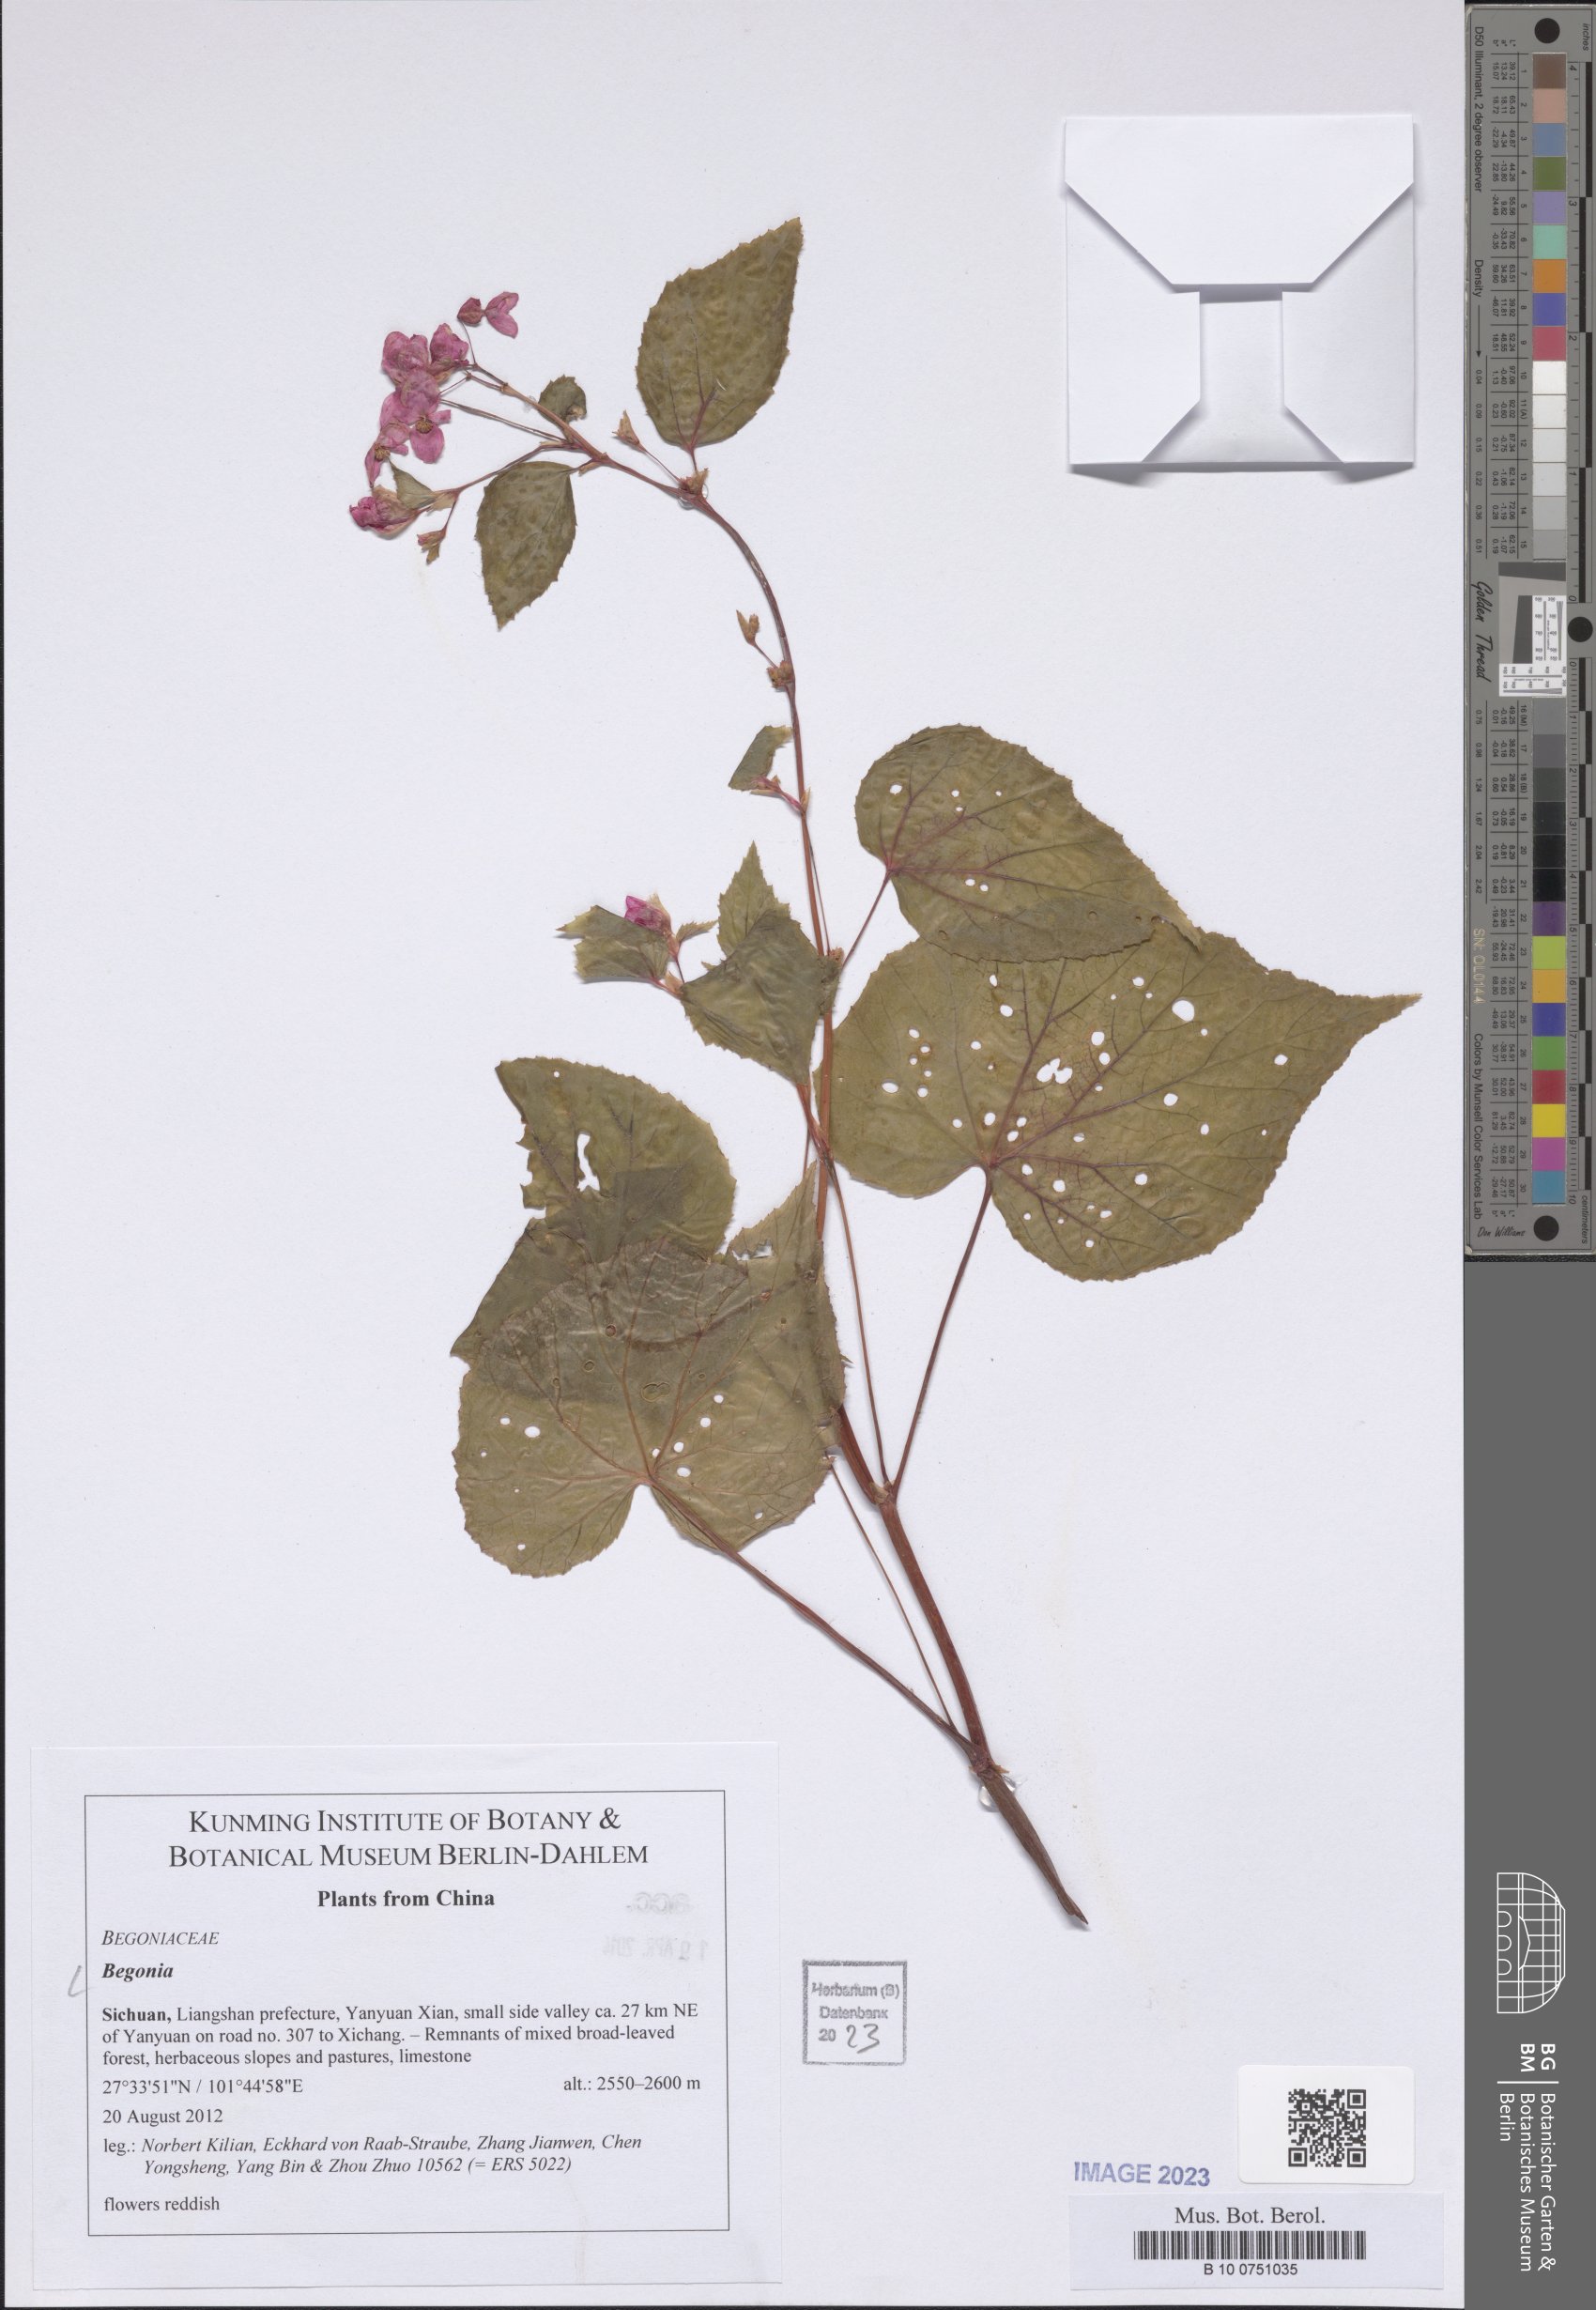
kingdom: Plantae
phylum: Tracheophyta
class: Magnoliopsida
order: Cucurbitales
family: Begoniaceae
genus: Begonia
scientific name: Begonia
